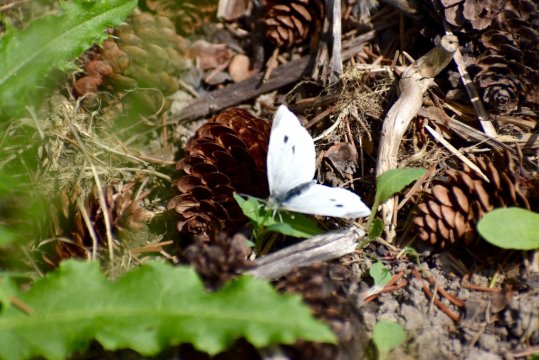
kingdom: Animalia
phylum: Arthropoda
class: Insecta
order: Lepidoptera
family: Pieridae
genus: Pieris
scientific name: Pieris rapae
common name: Cabbage White
